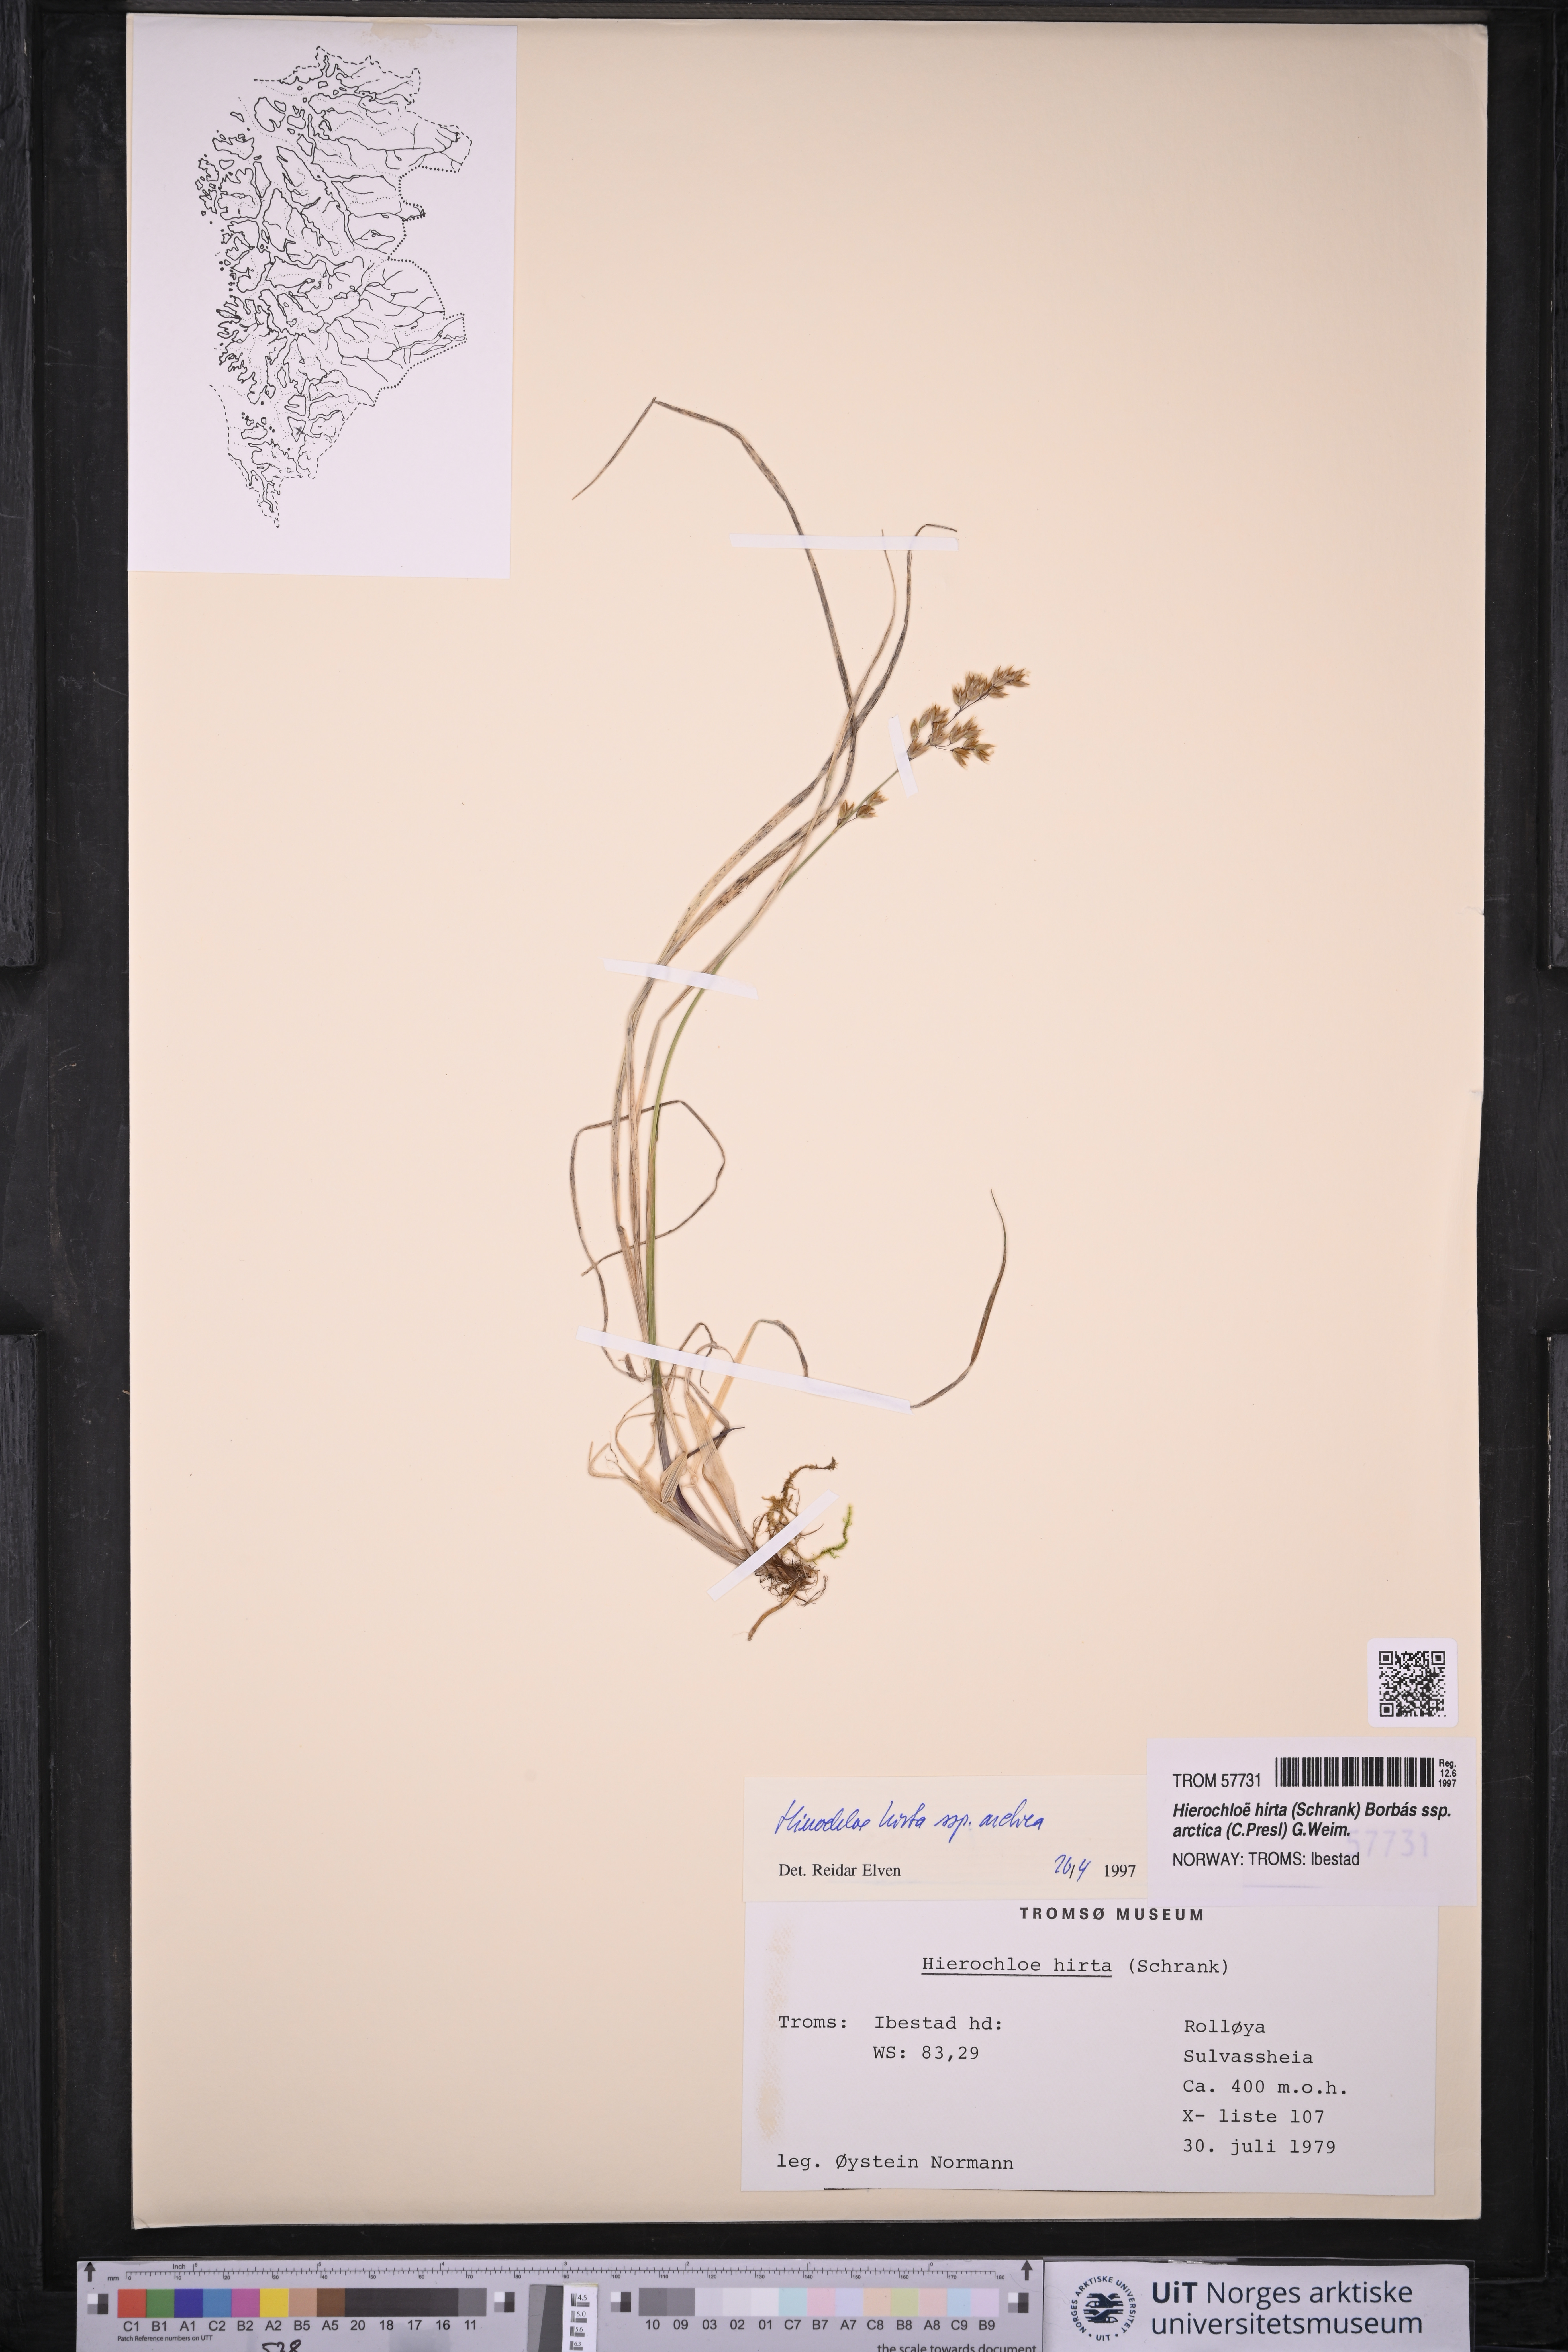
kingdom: Plantae
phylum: Tracheophyta
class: Liliopsida
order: Poales
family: Poaceae
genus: Anthoxanthum
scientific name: Anthoxanthum nitens
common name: Holy grass
